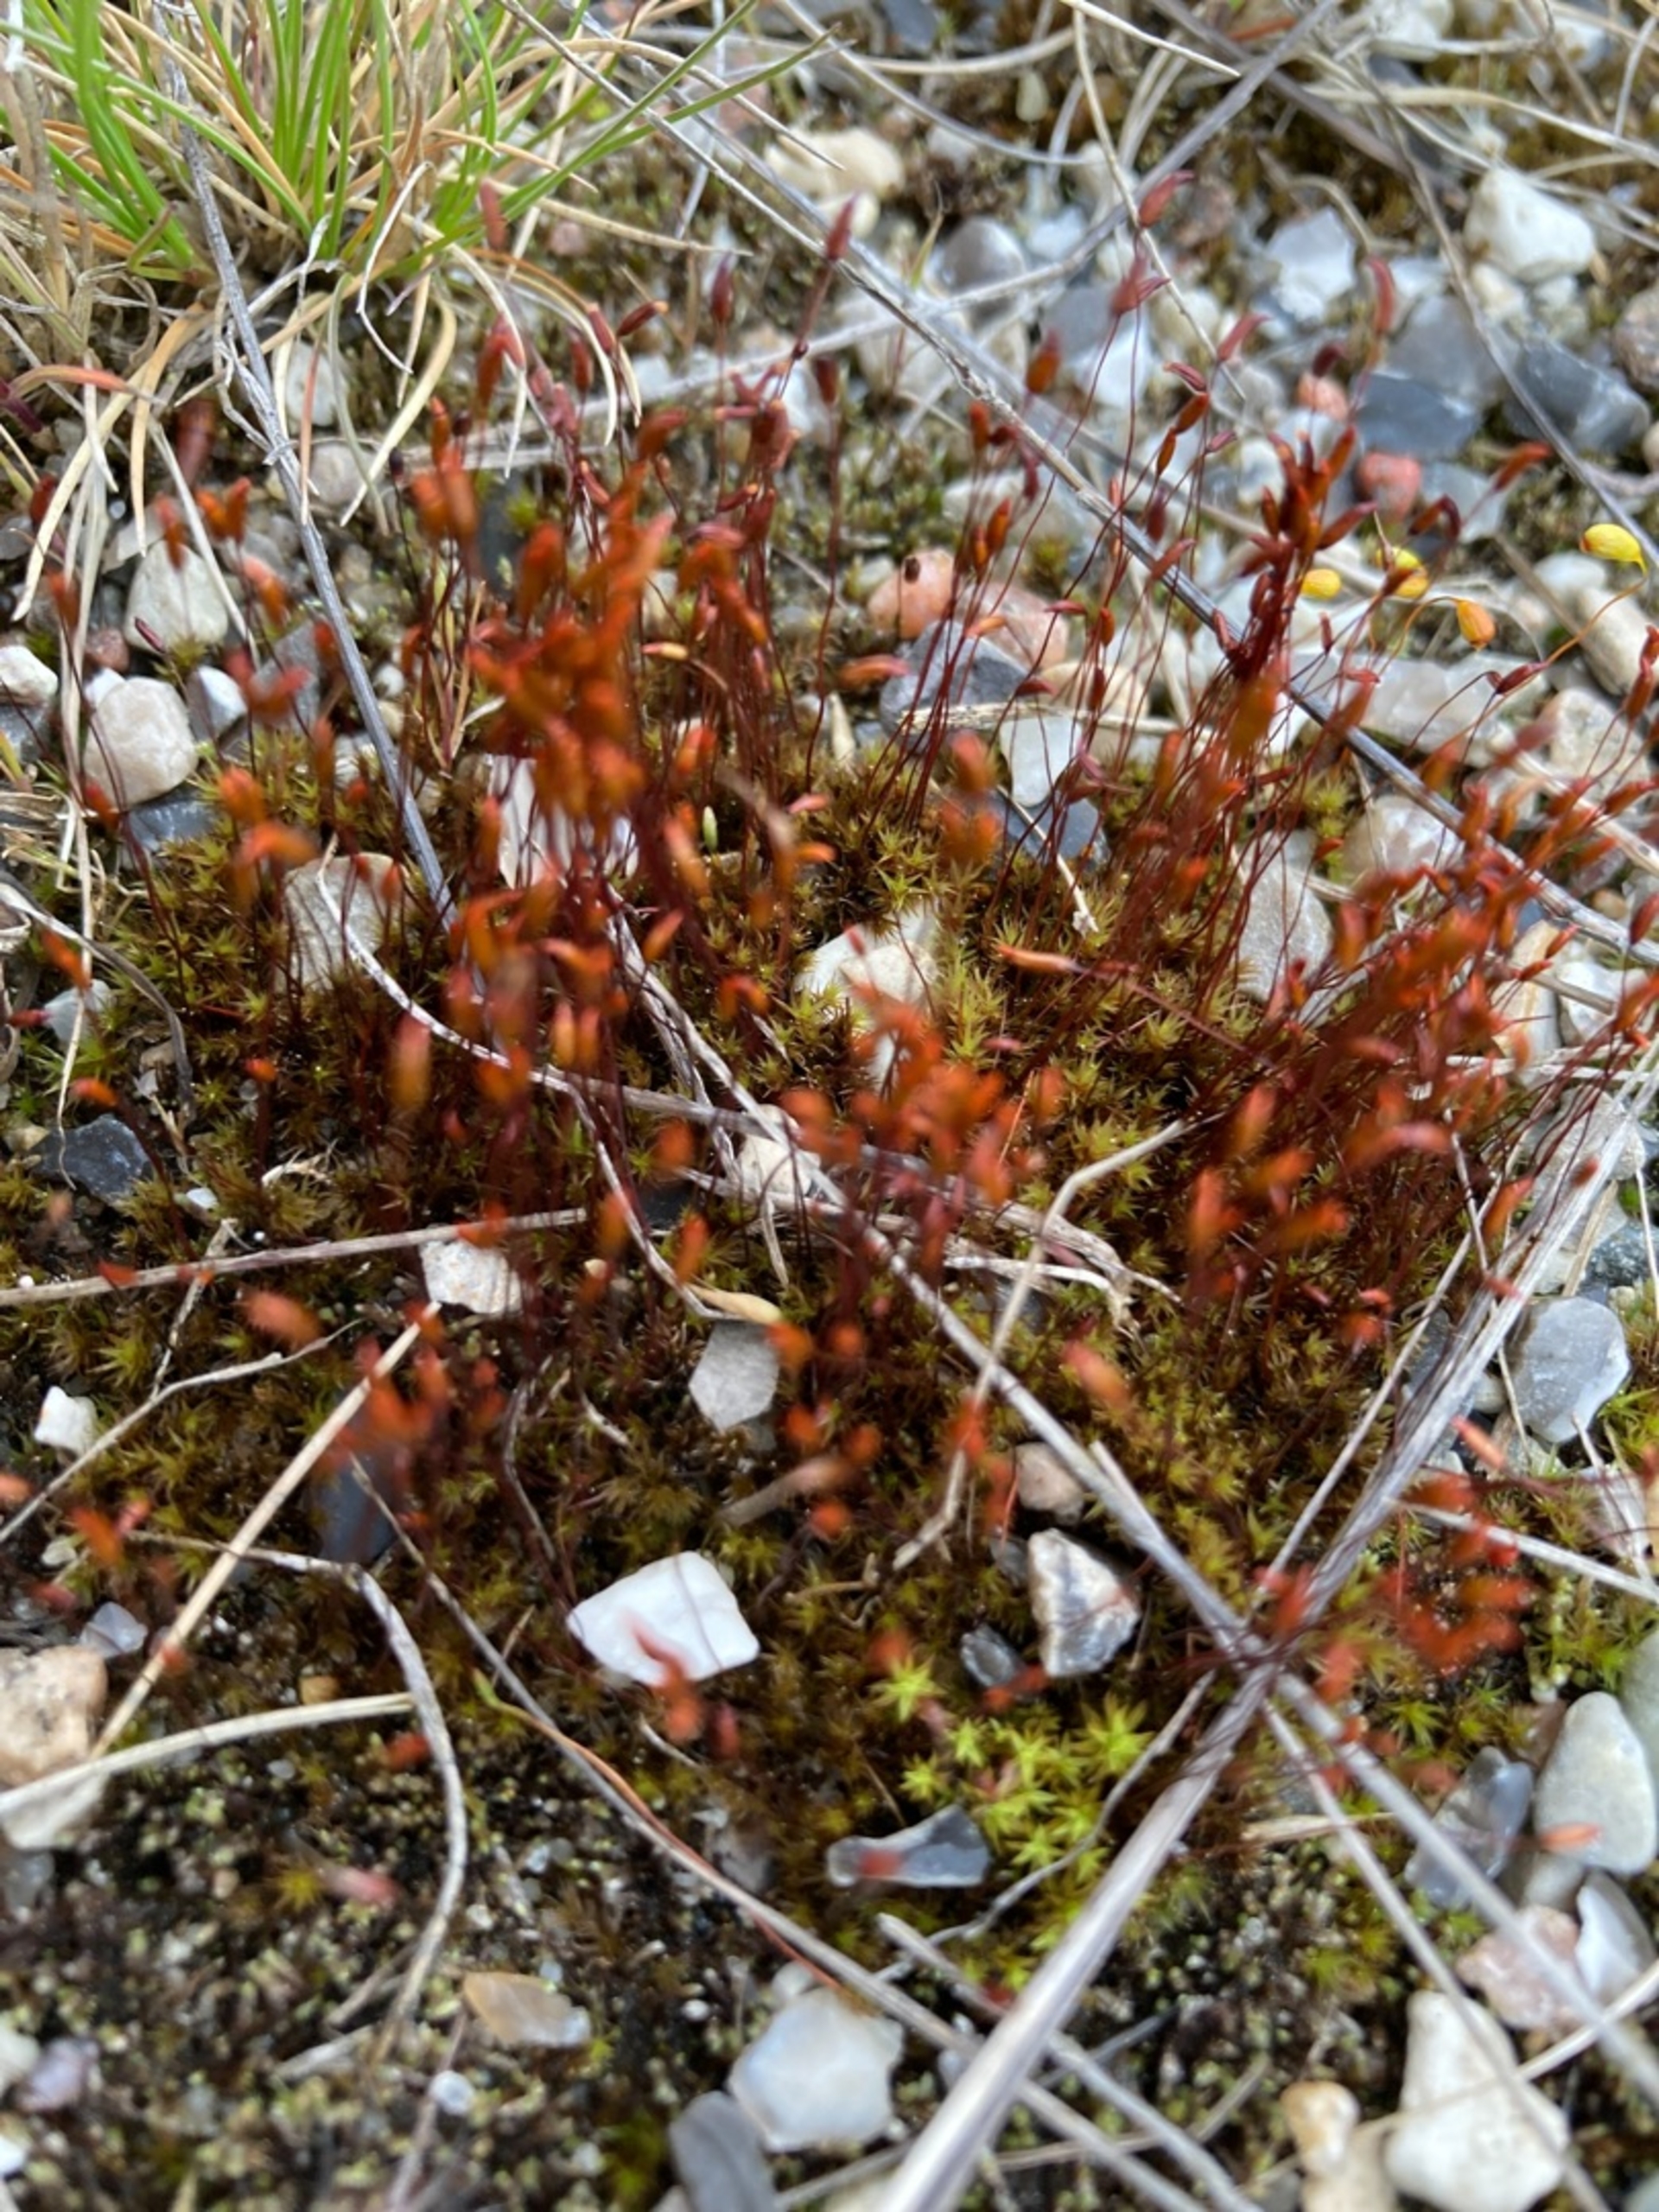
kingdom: Plantae
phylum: Bryophyta
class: Bryopsida
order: Dicranales
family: Ditrichaceae
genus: Ceratodon
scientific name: Ceratodon purpureus
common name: Rød horntand
